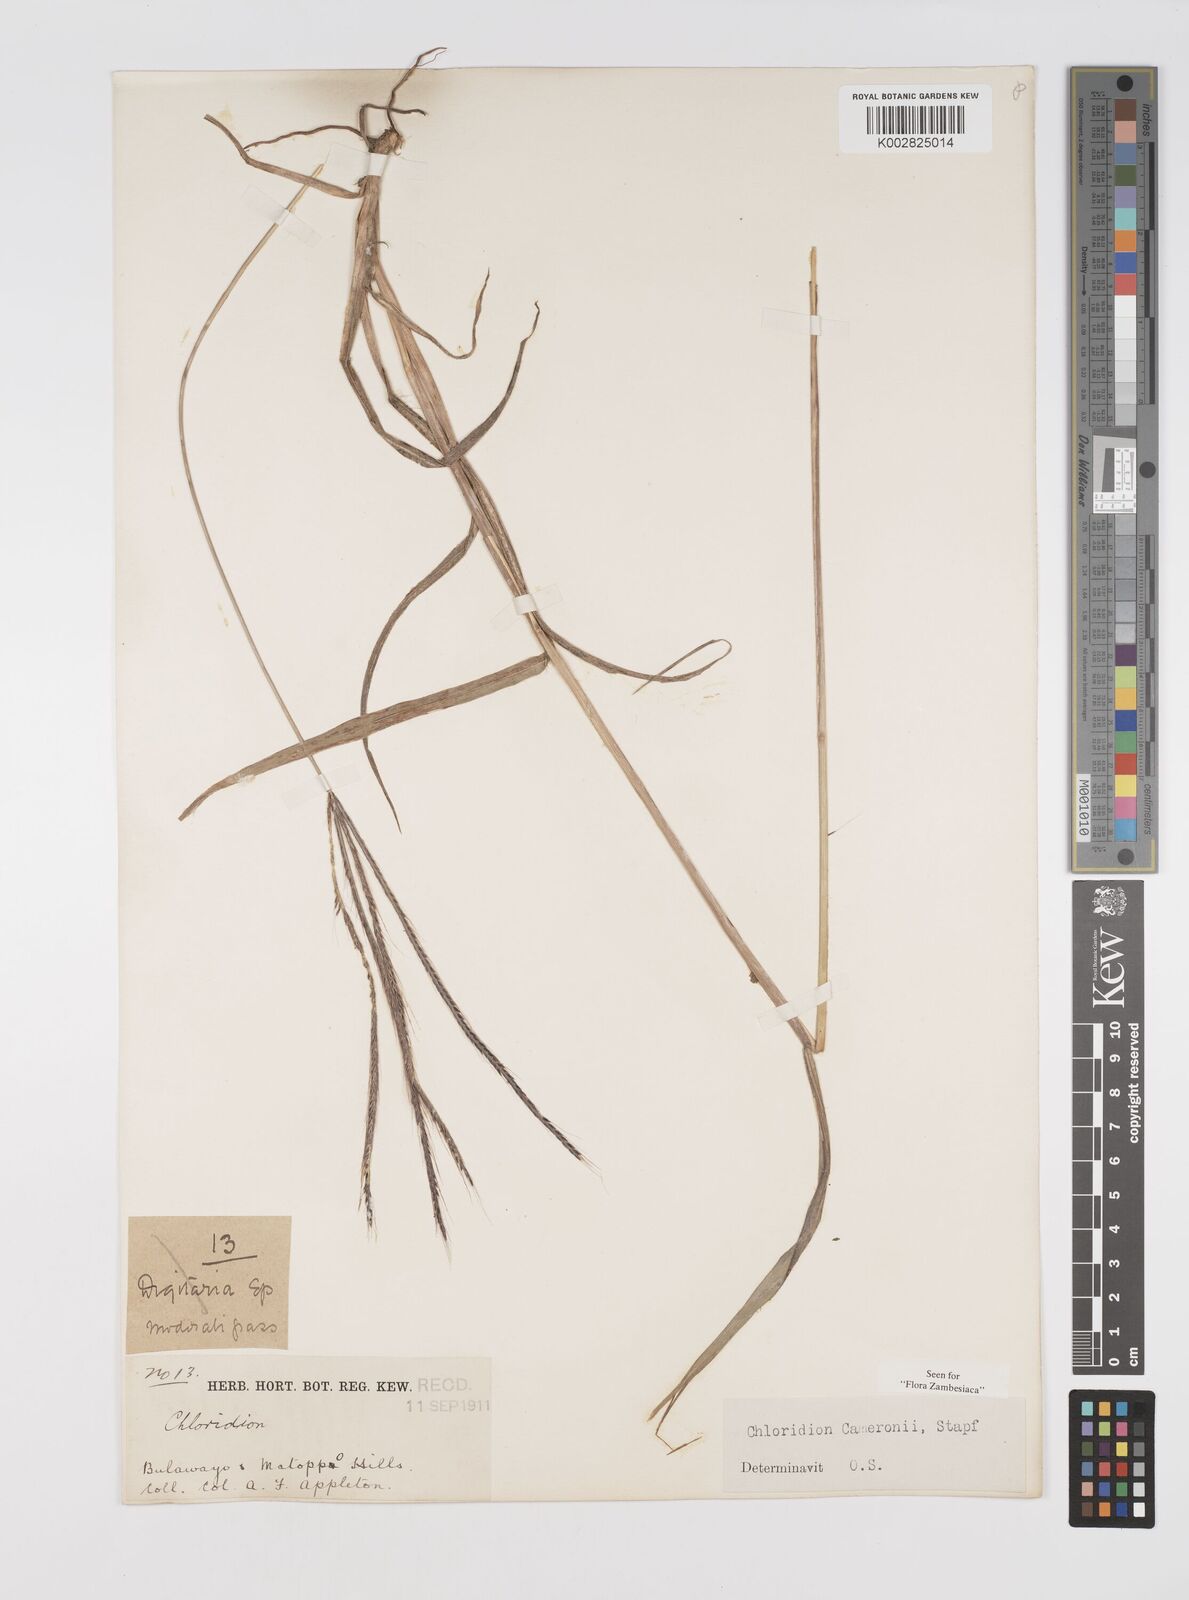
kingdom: Plantae
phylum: Tracheophyta
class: Liliopsida
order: Poales
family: Poaceae
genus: Stereochlaena
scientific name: Stereochlaena cameronii
